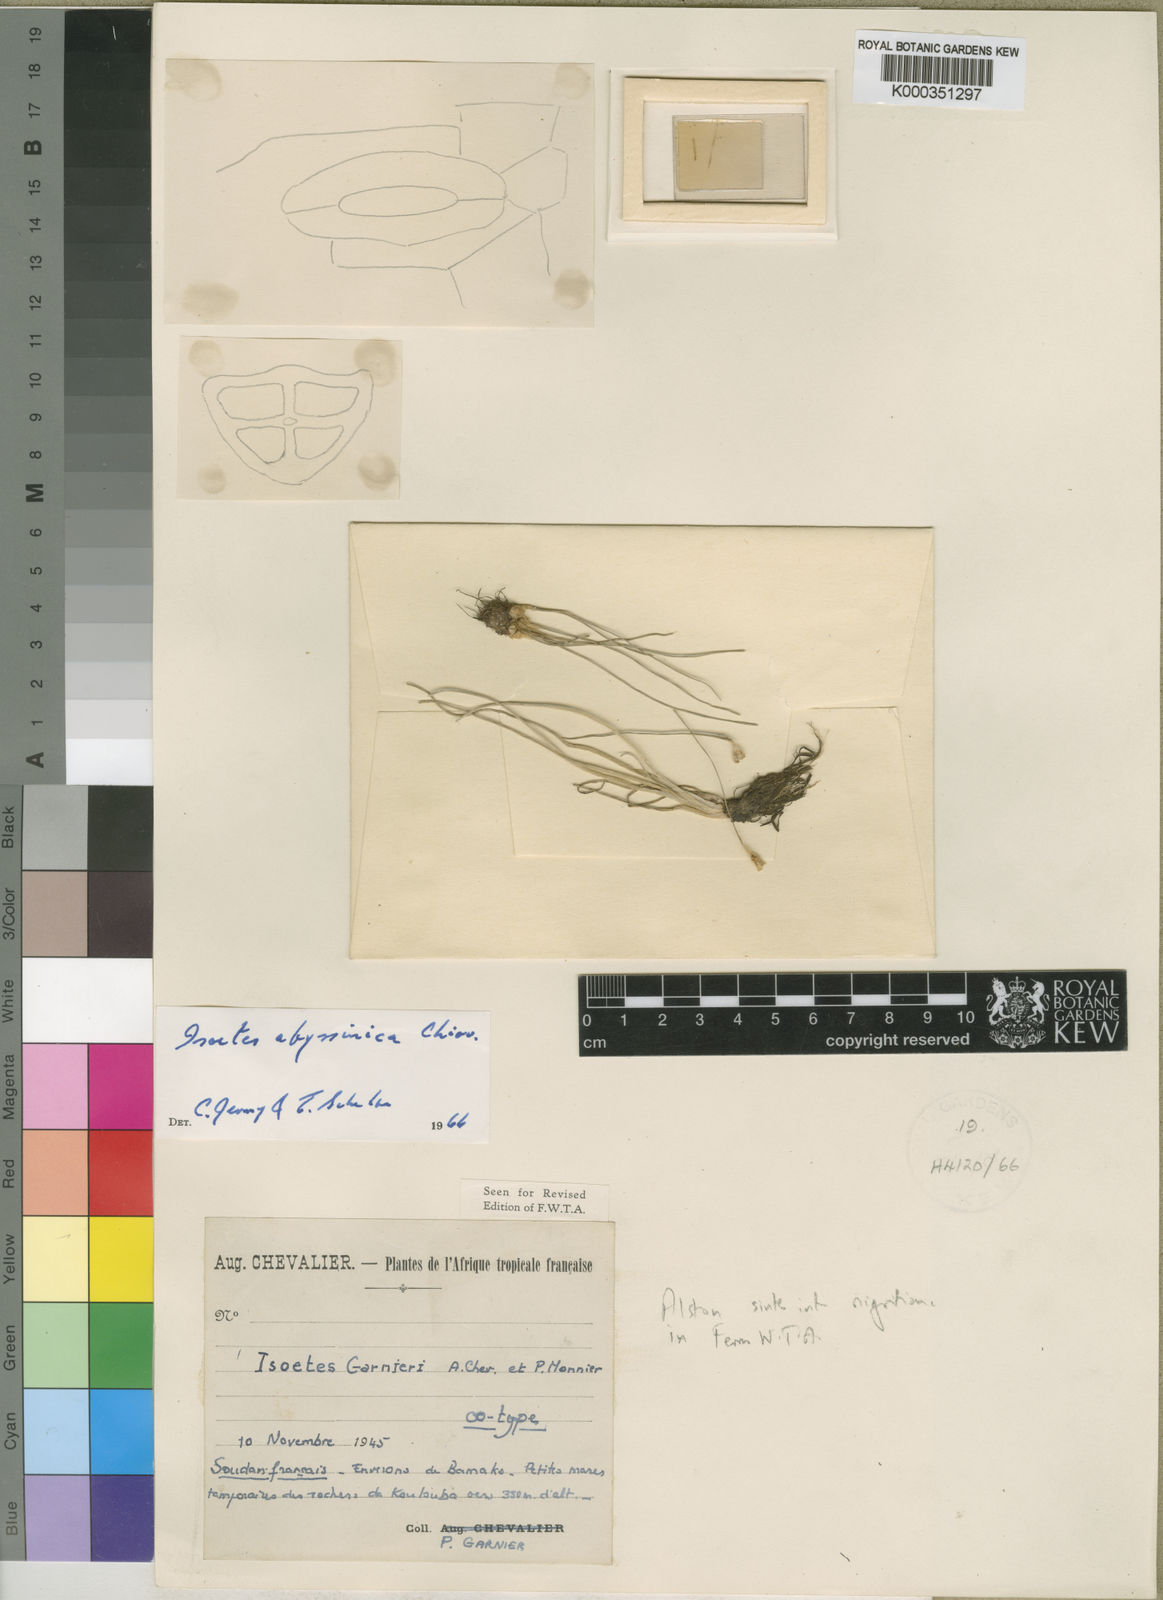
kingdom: Plantae
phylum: Tracheophyta
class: Lycopodiopsida
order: Isoetales
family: Isoetaceae
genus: Isoetes
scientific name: Isoetes nigritiana
